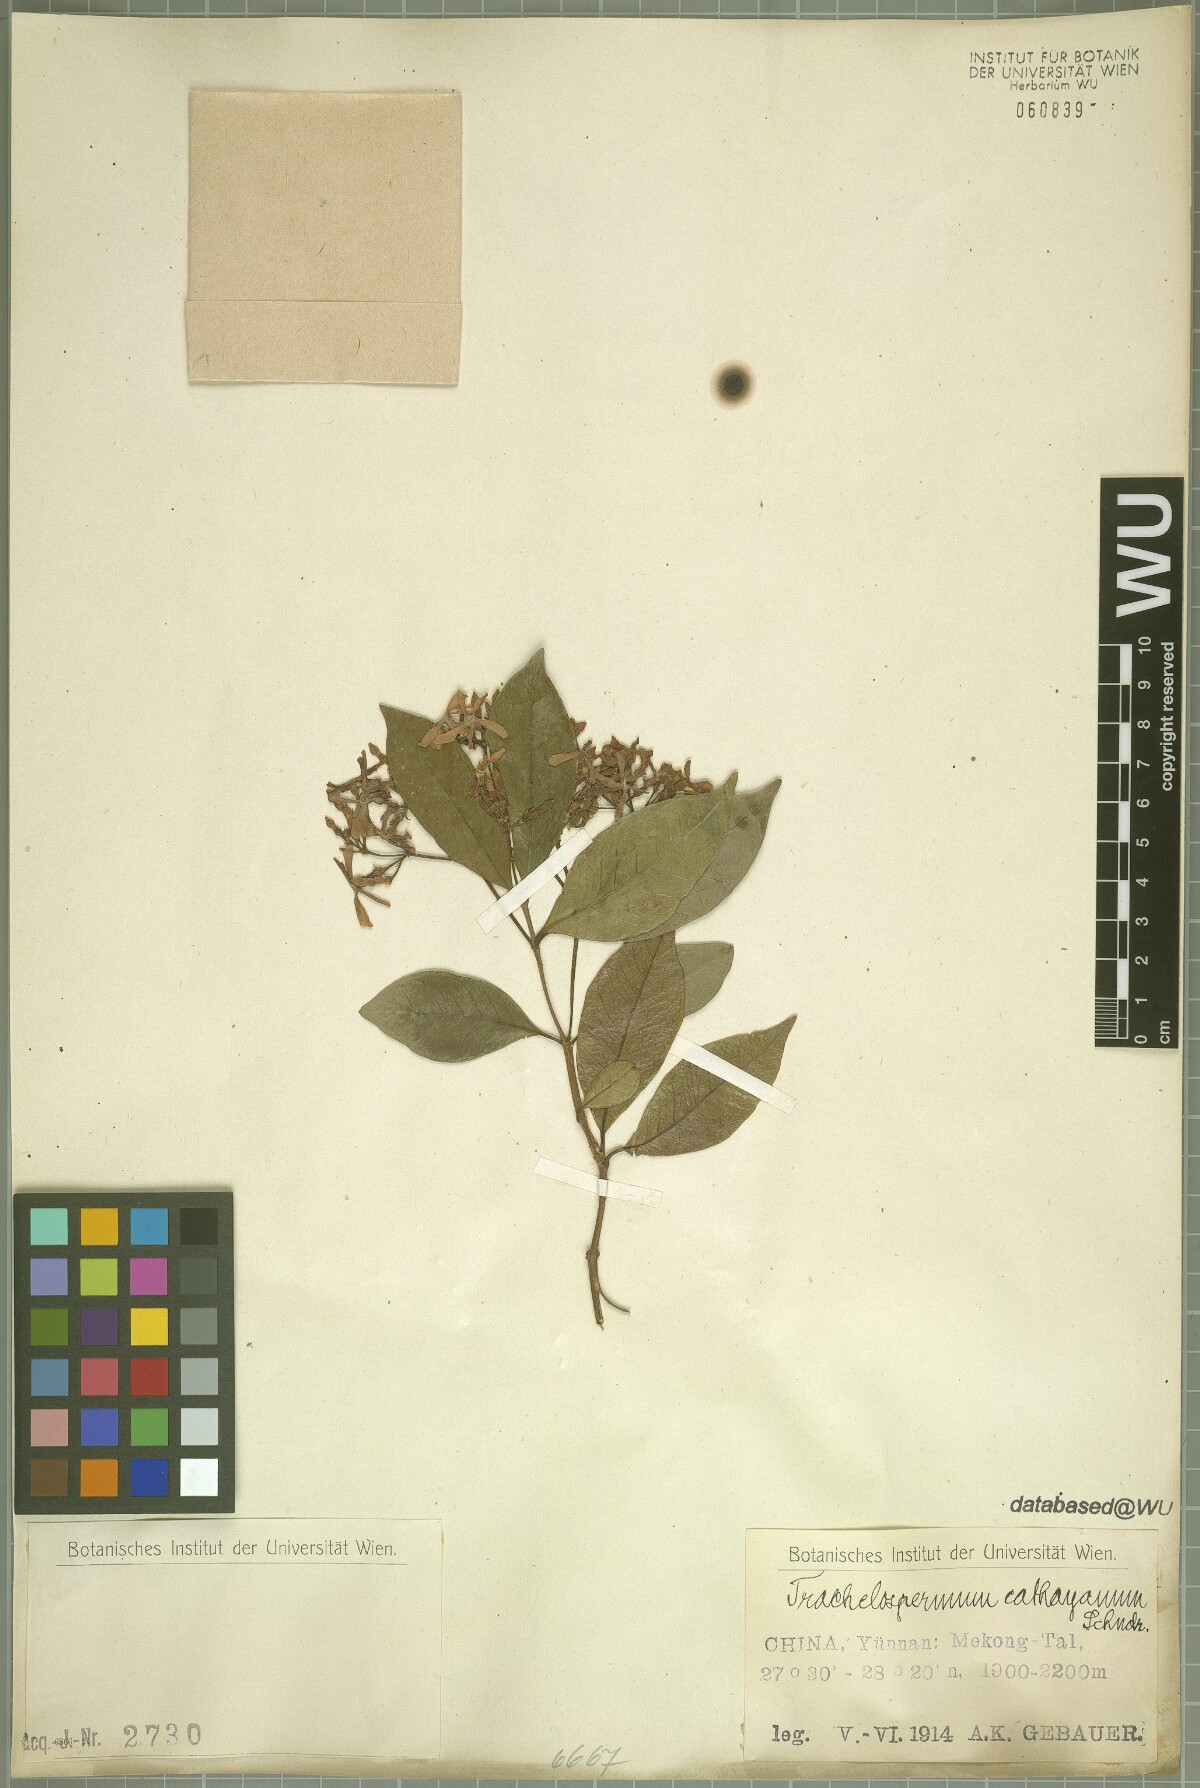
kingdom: Plantae
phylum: Tracheophyta
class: Magnoliopsida
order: Gentianales
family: Apocynaceae
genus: Trachelospermum
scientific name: Trachelospermum bodinieri
